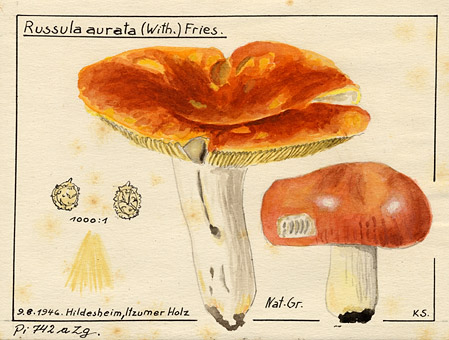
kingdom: Fungi
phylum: Basidiomycota
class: Agaricomycetes
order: Russulales
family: Russulaceae
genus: Russula
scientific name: Russula aurea
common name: Gilded brittlegill
